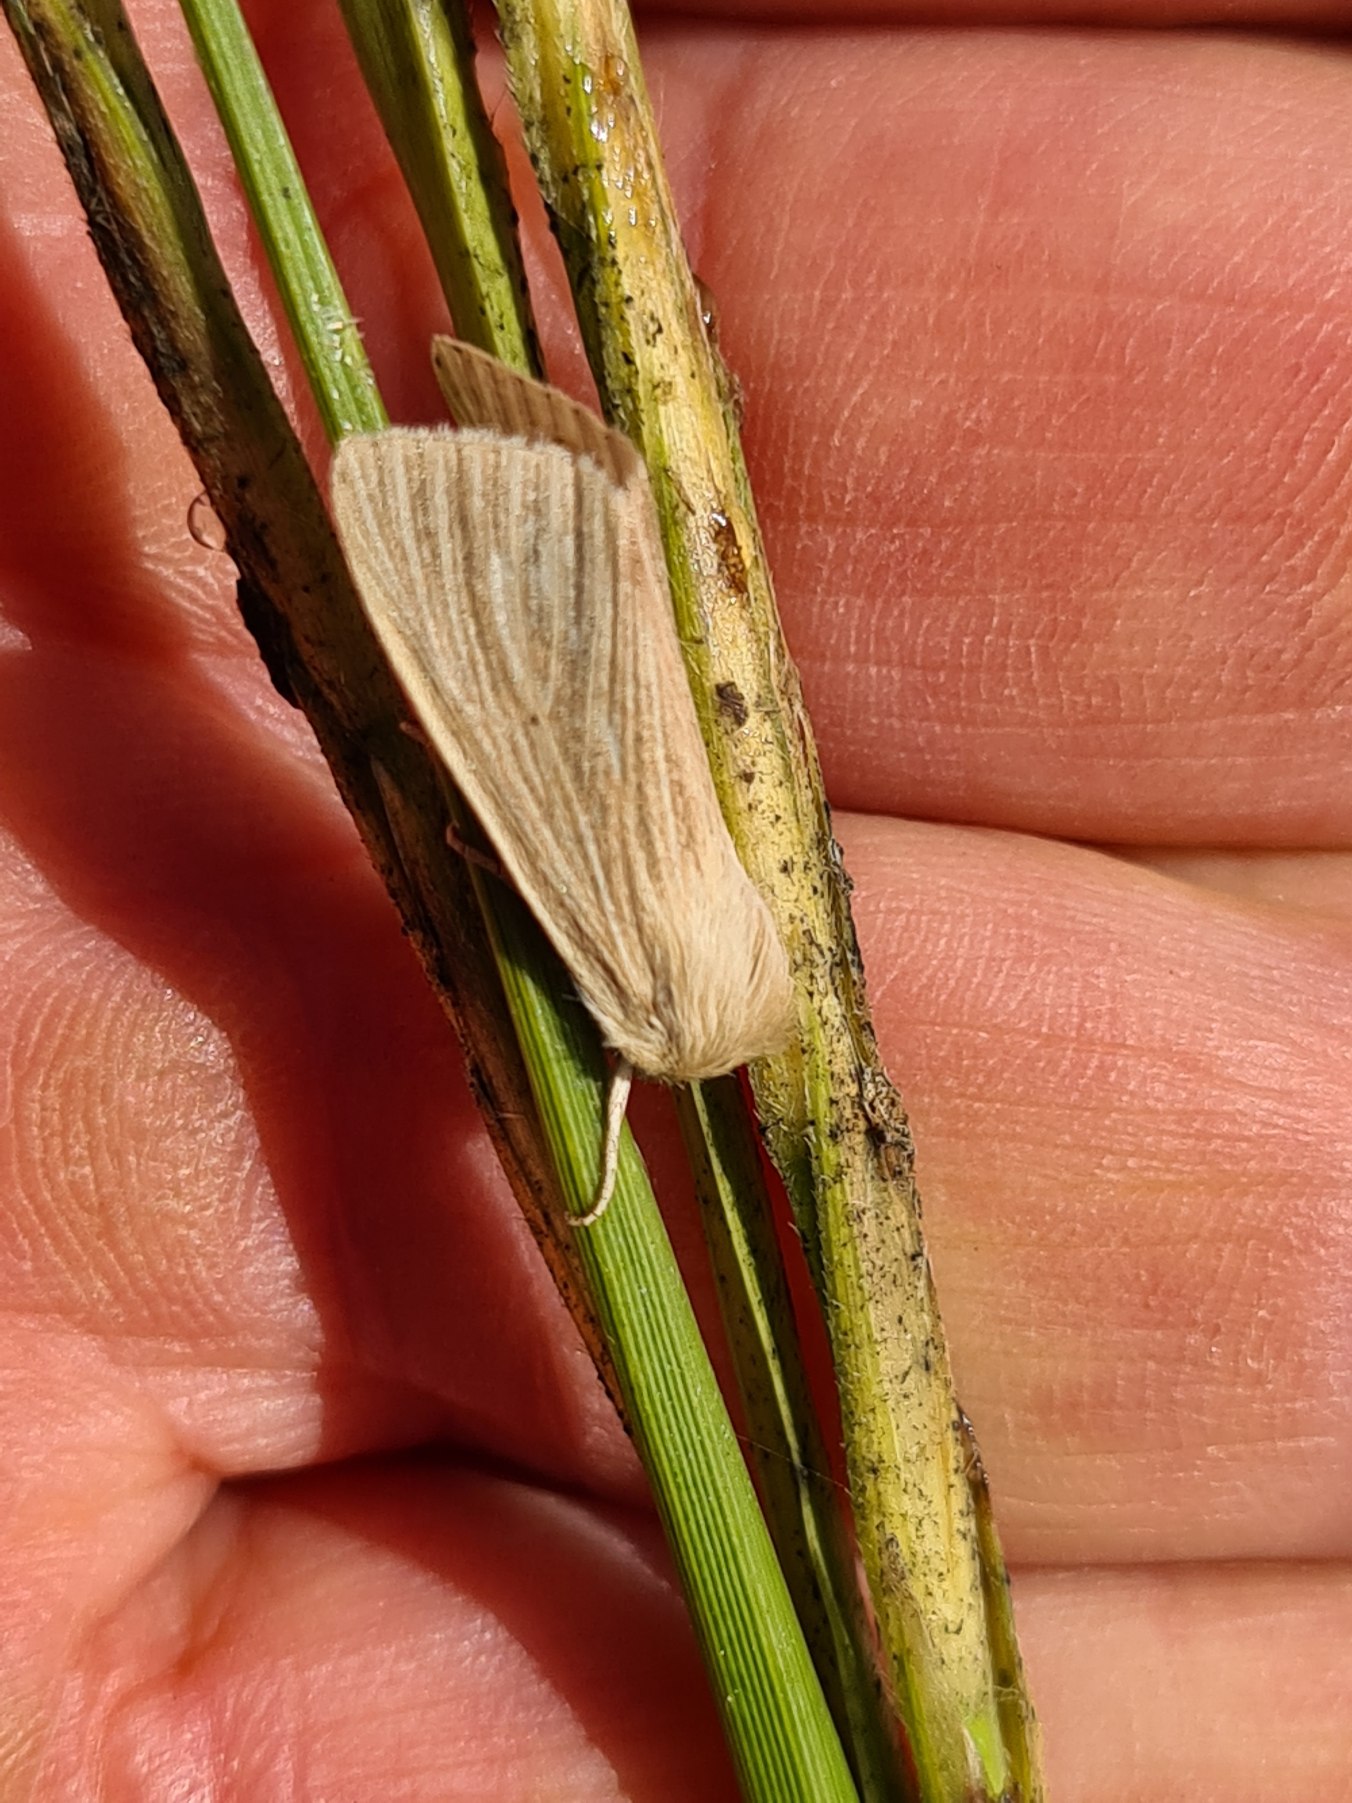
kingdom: Animalia
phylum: Arthropoda
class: Insecta
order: Lepidoptera
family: Noctuidae
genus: Mythimna
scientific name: Mythimna pallens
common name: Halmugle
